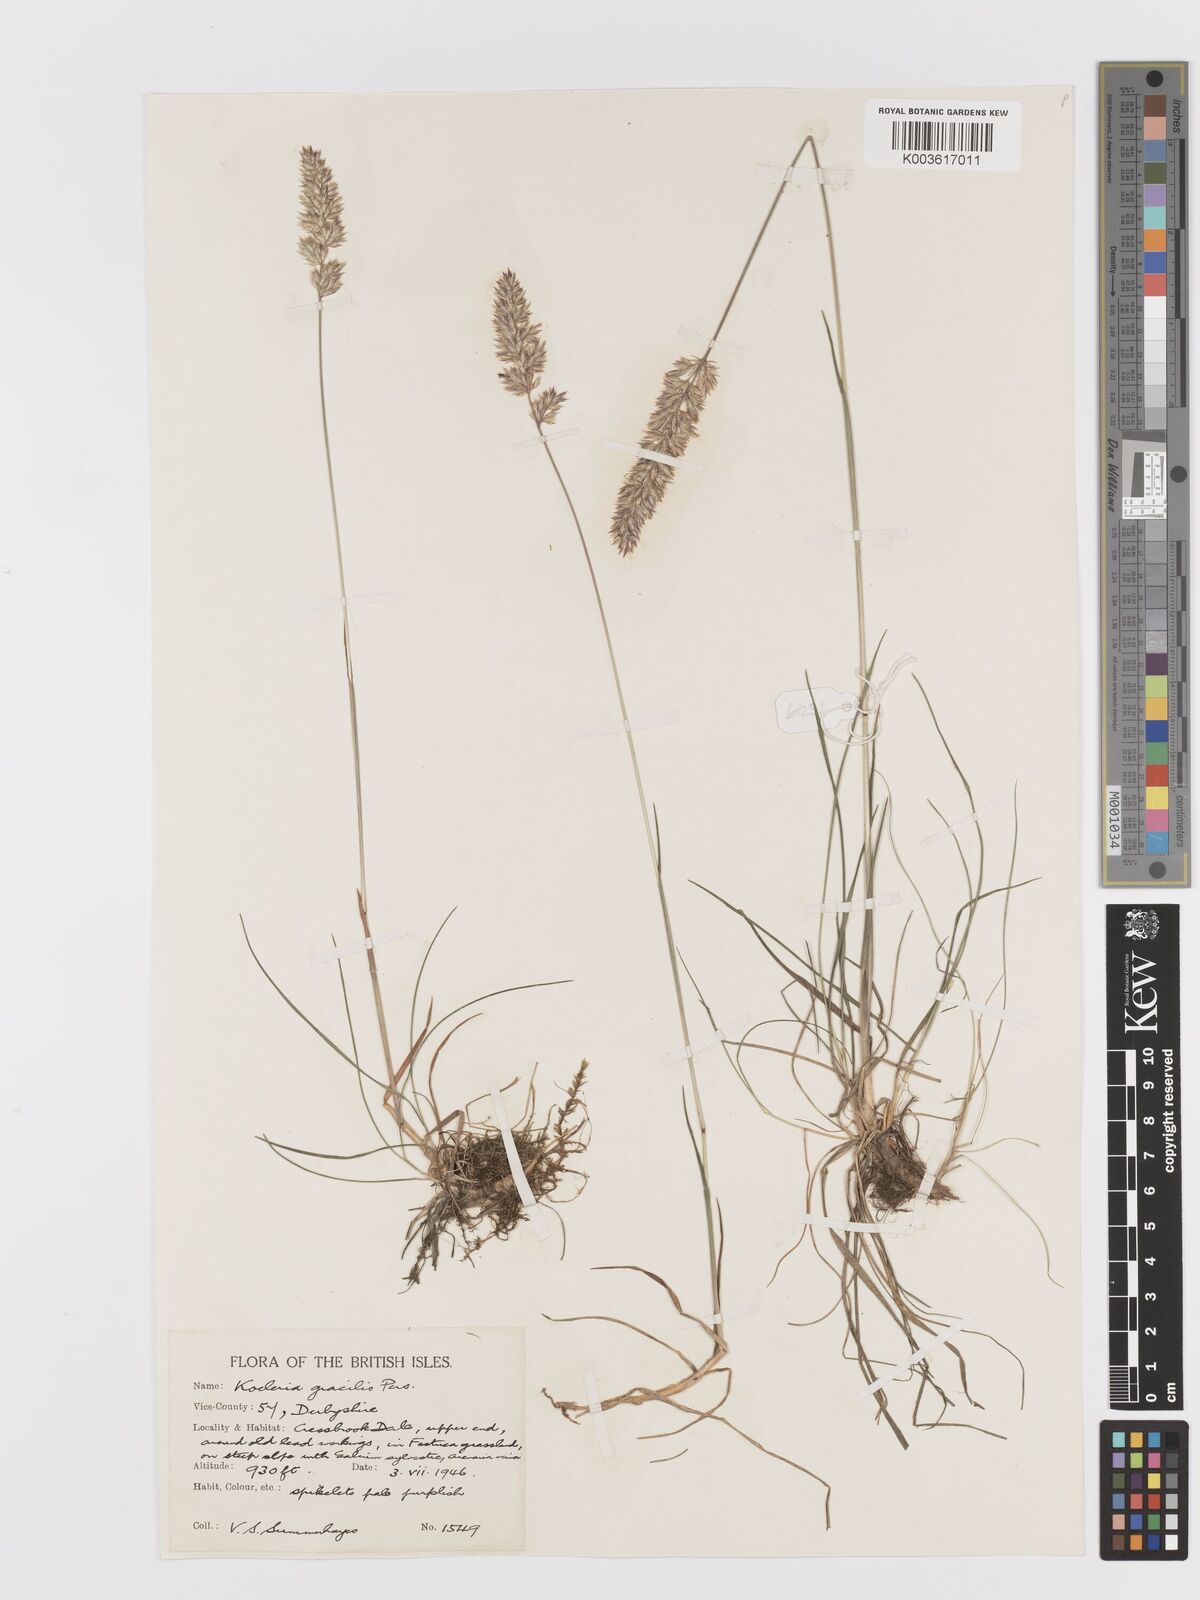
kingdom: Plantae
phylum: Tracheophyta
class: Liliopsida
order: Poales
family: Poaceae
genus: Koeleria
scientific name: Koeleria macrantha
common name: Crested hair-grass
